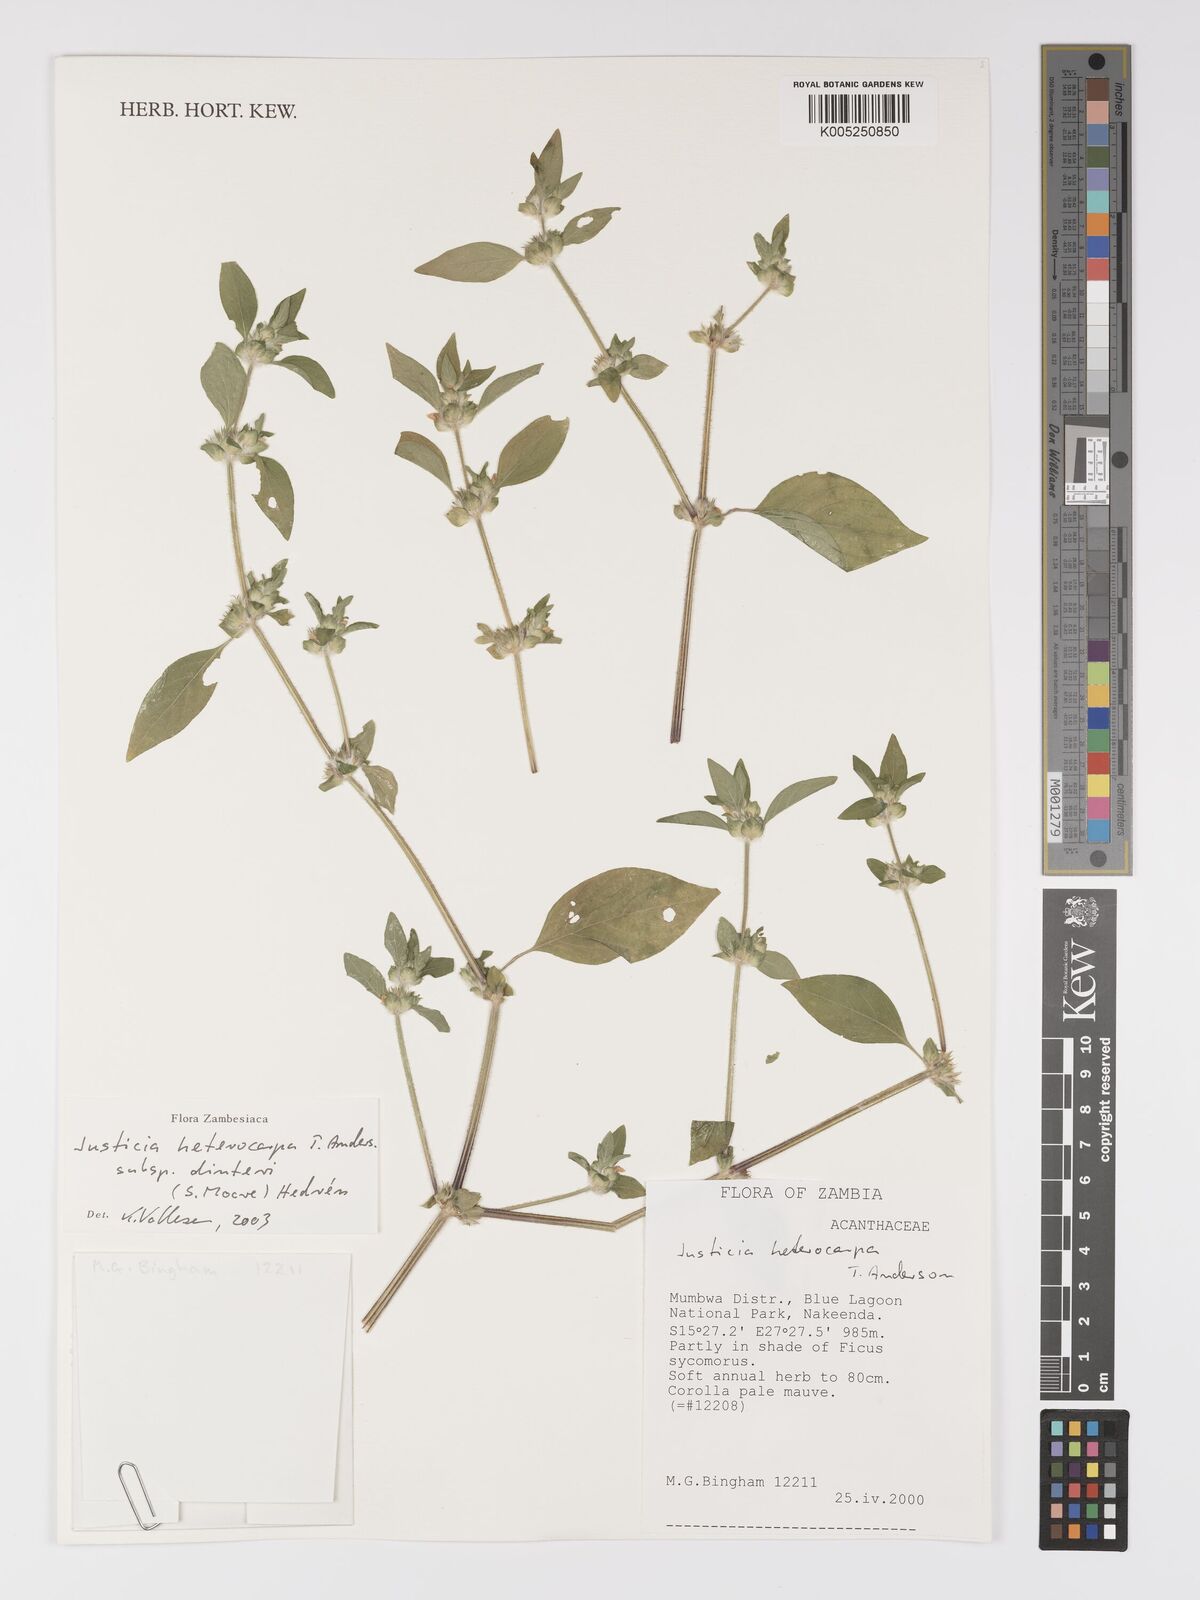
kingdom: Plantae
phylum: Tracheophyta
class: Magnoliopsida
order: Lamiales
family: Acanthaceae
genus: Justicia
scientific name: Justicia heterocarpa
